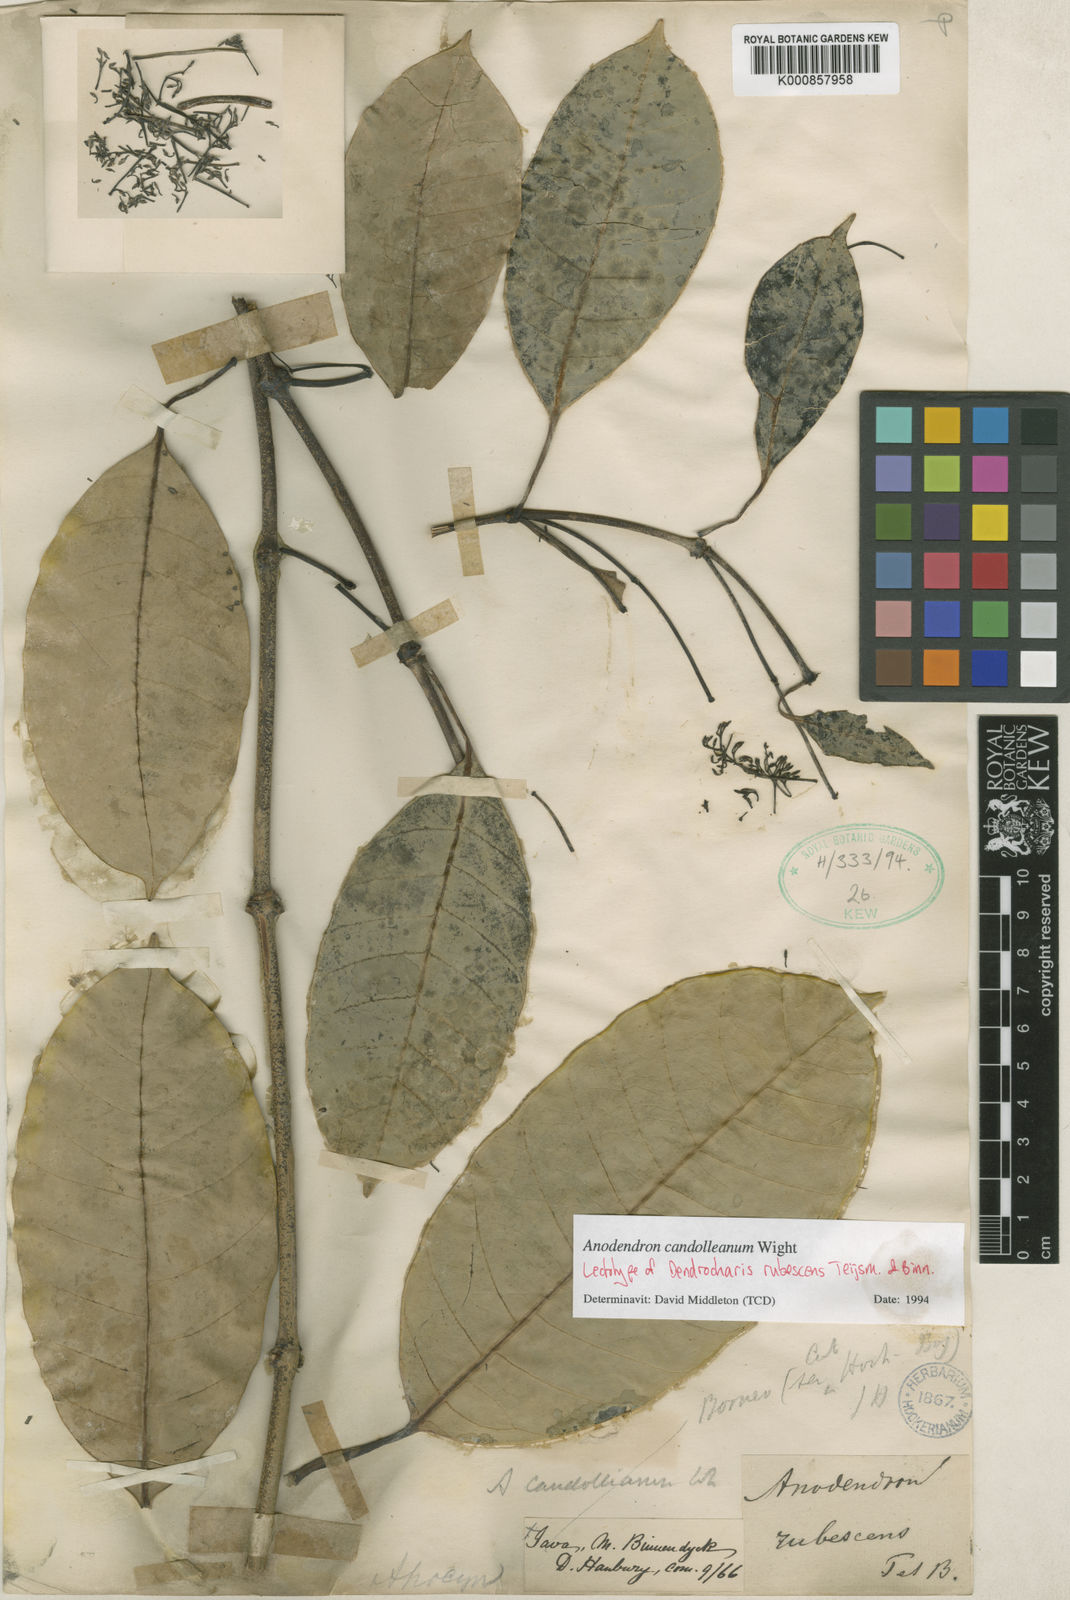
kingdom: Plantae
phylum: Tracheophyta
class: Magnoliopsida
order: Gentianales
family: Apocynaceae
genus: Anodendron
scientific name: Anodendron candolleanum
